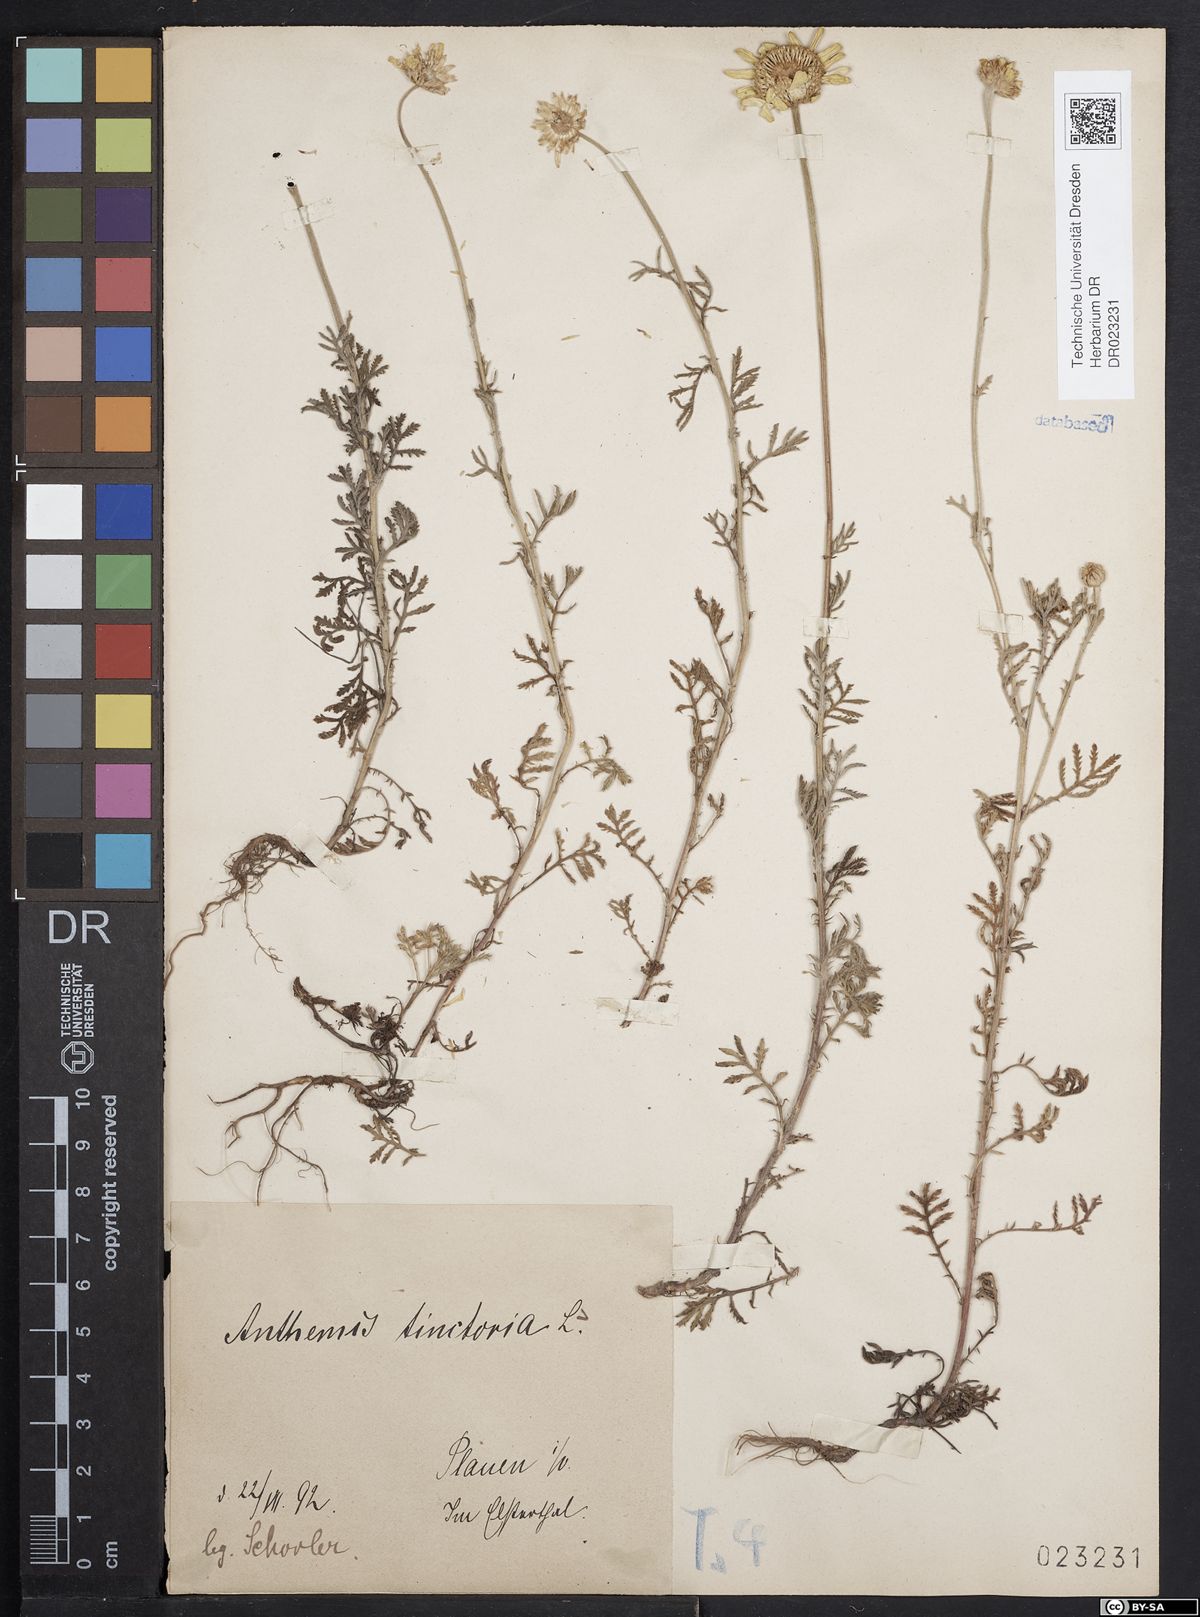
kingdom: Plantae
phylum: Tracheophyta
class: Magnoliopsida
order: Asterales
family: Asteraceae
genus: Cota
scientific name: Cota tinctoria
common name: Golden chamomile
